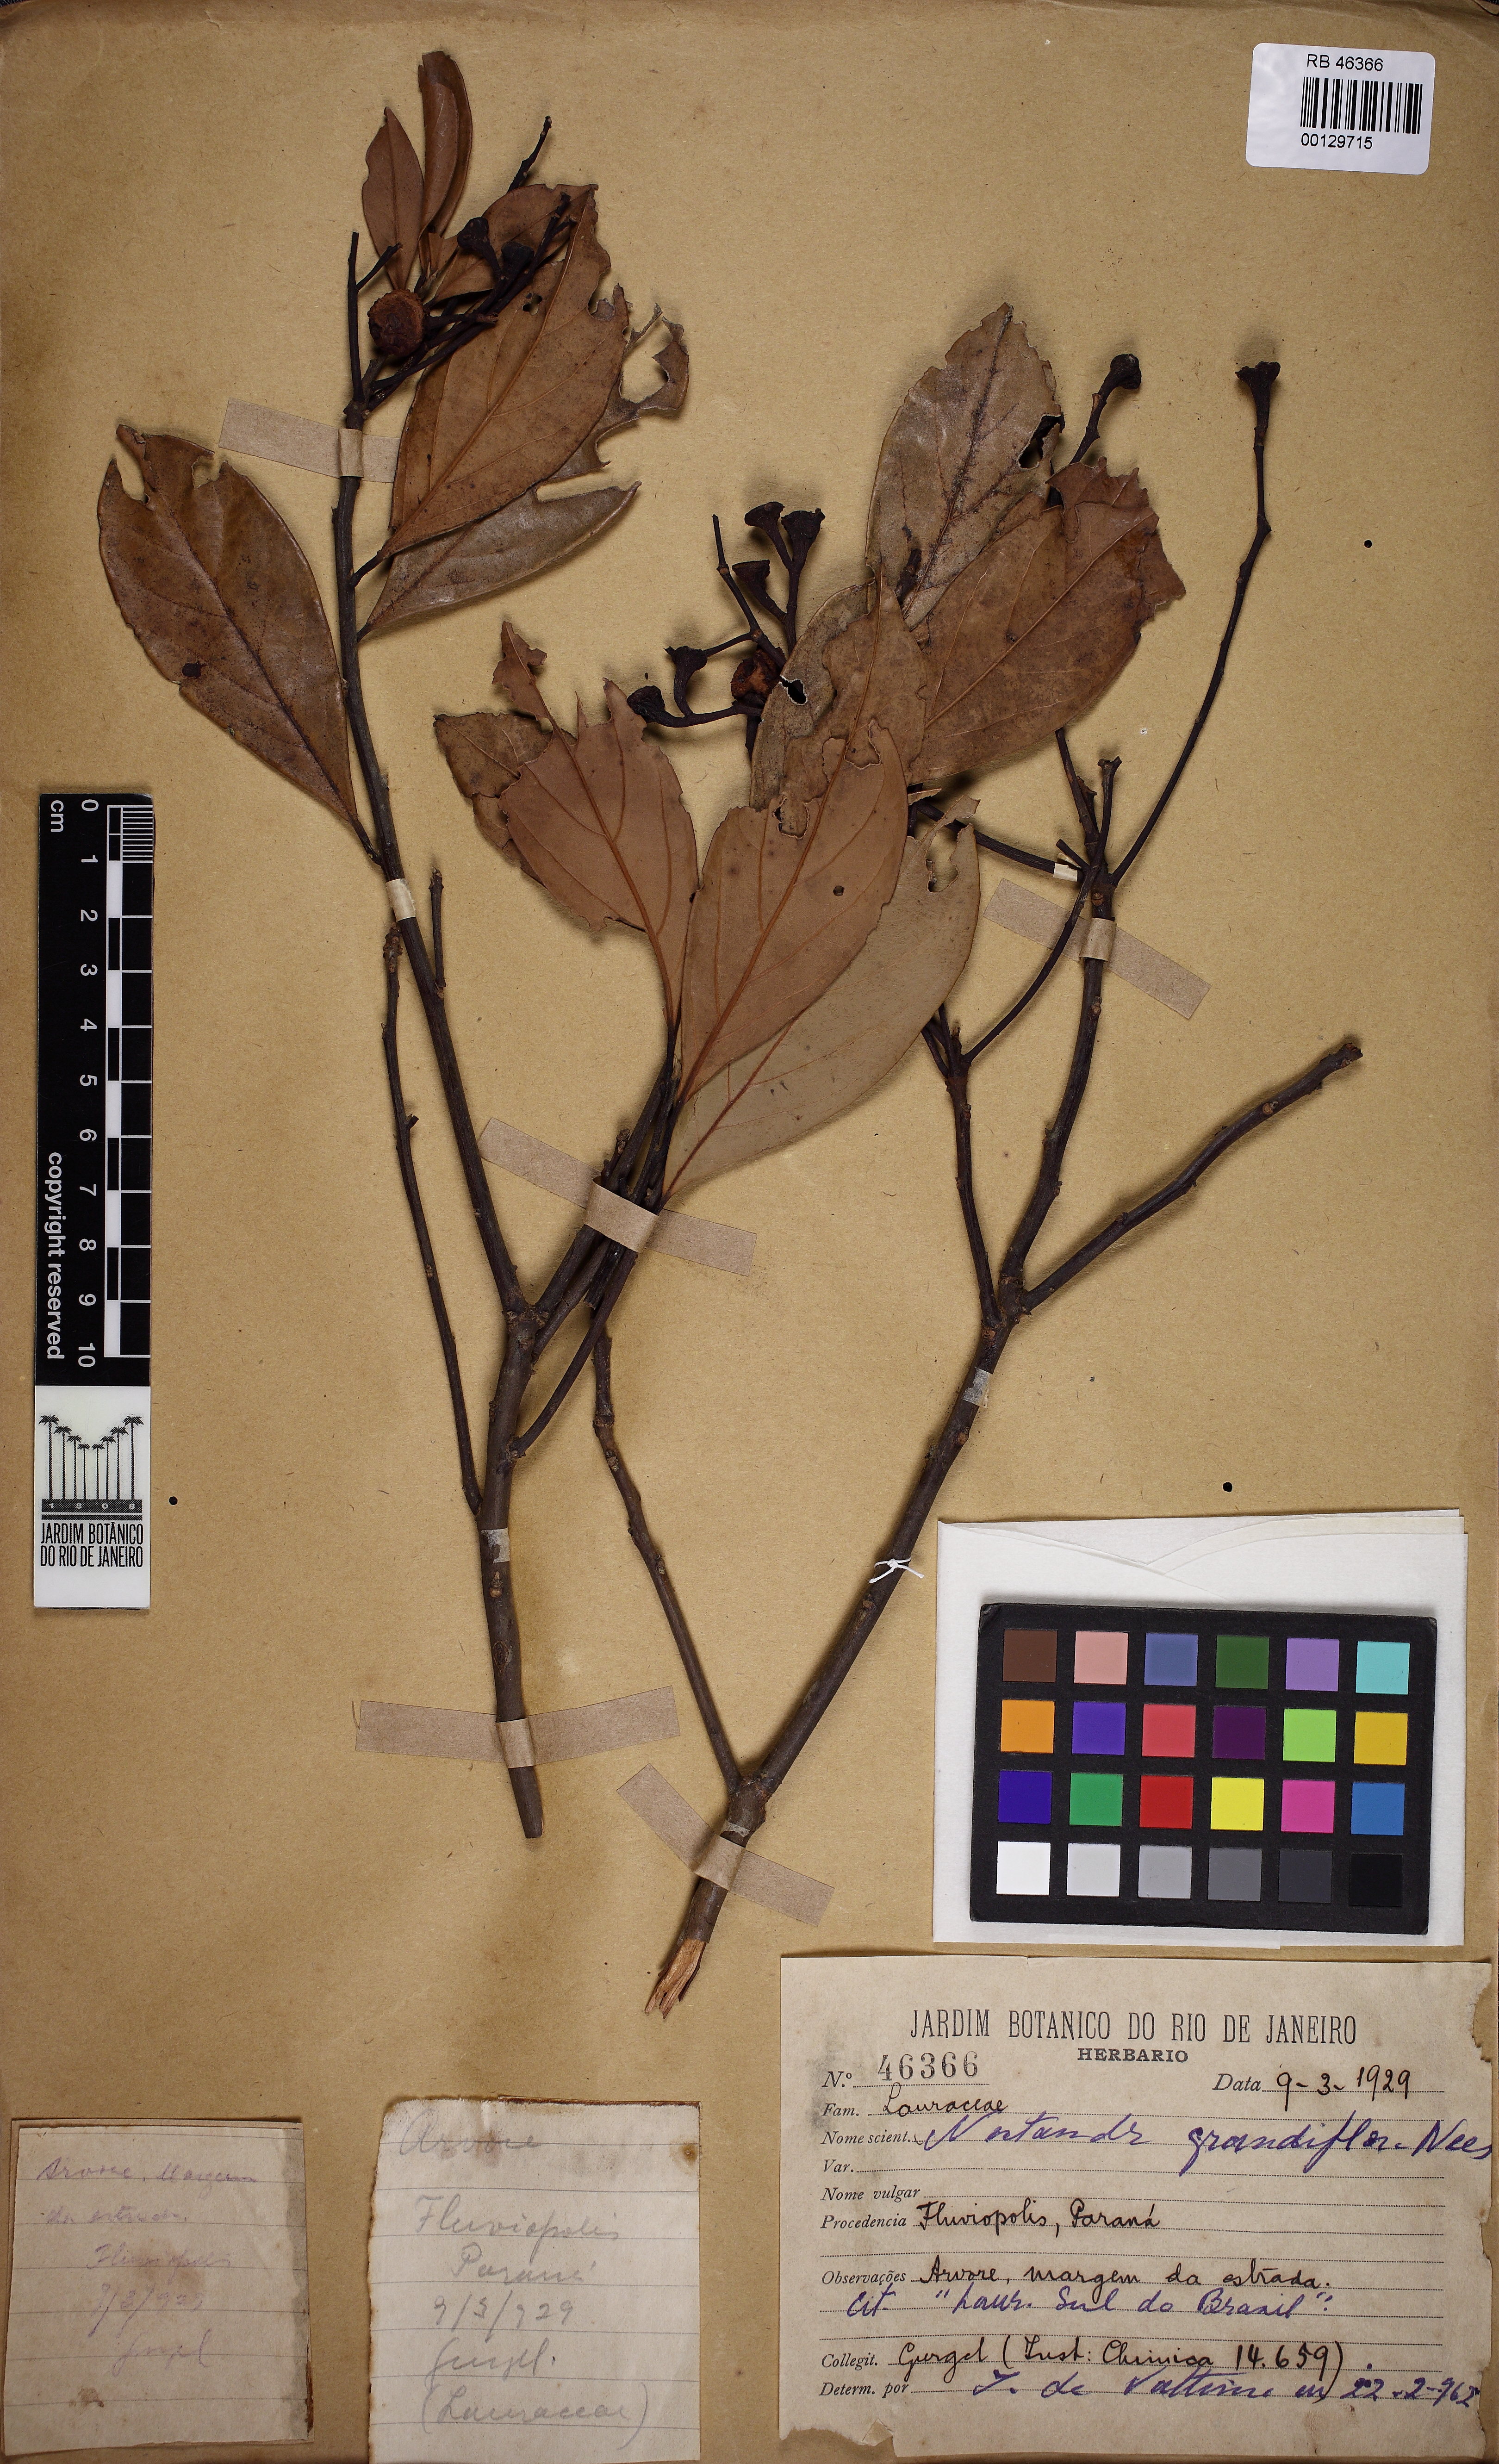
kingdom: Plantae
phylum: Tracheophyta
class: Magnoliopsida
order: Laurales
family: Lauraceae
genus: Nectandra
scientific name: Nectandra grandiflora
